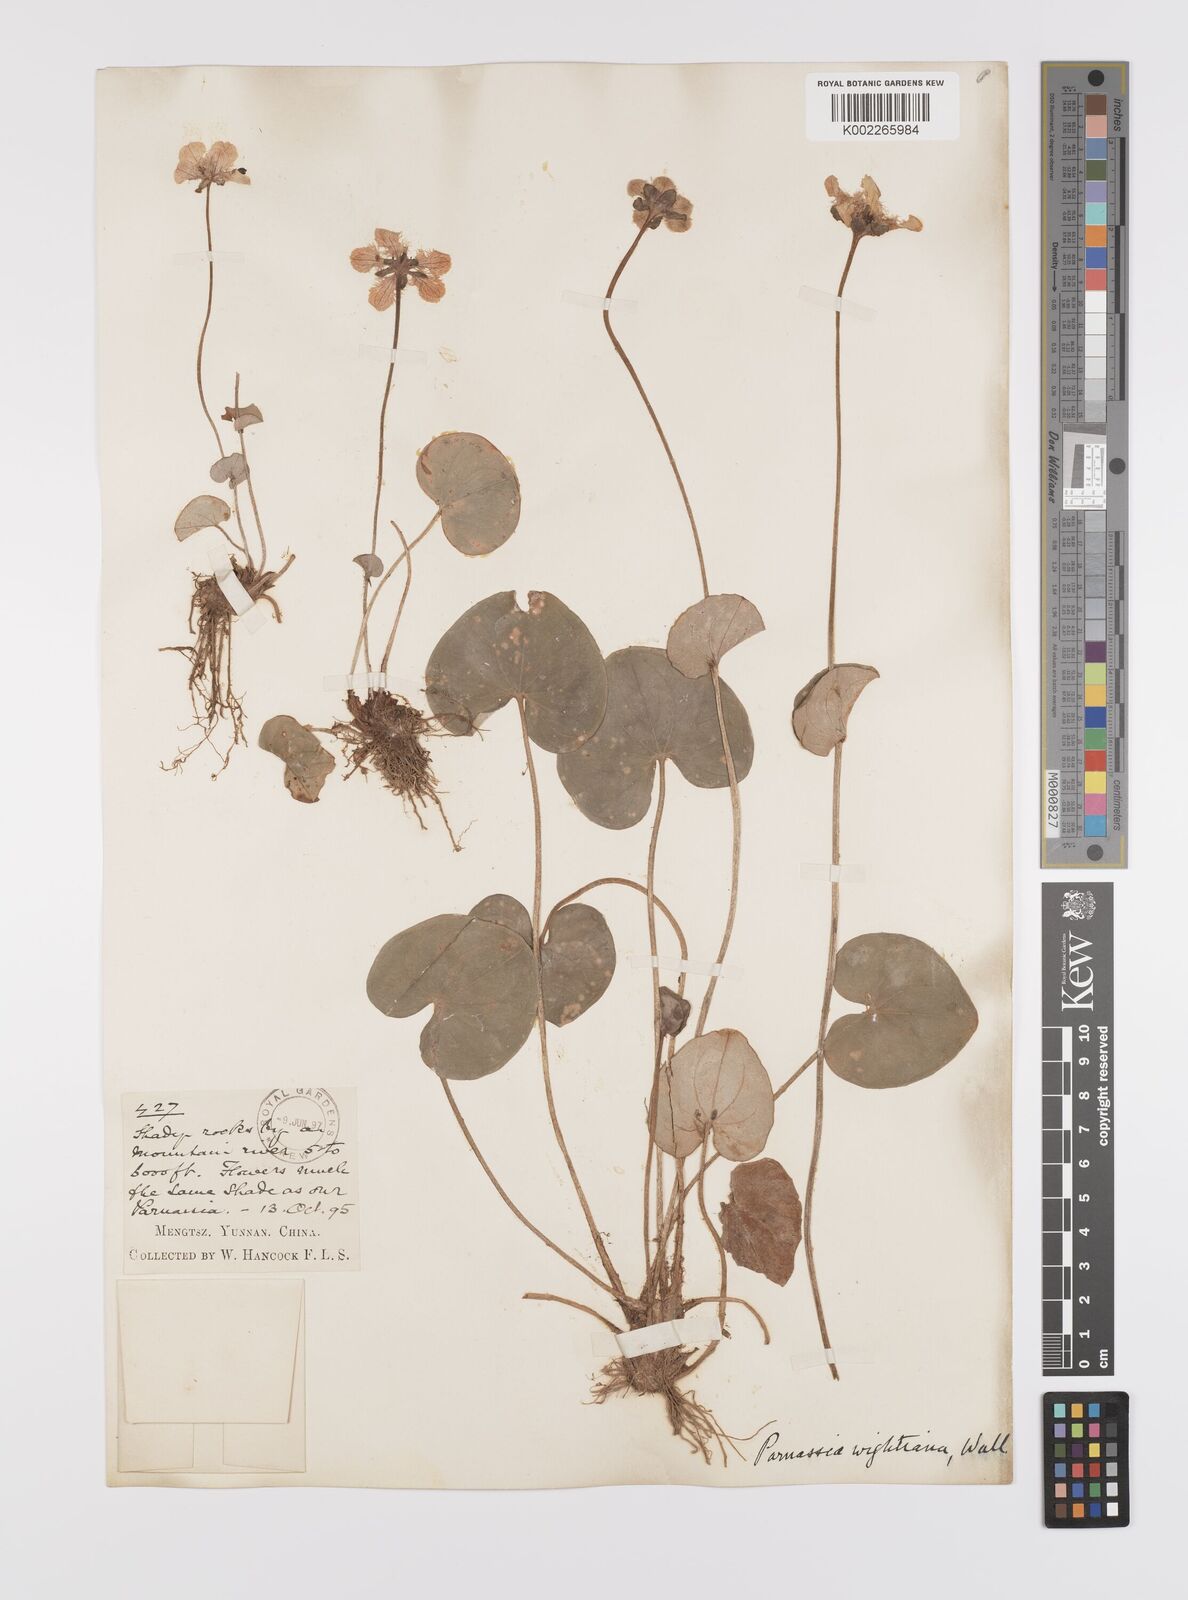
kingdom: Plantae
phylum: Tracheophyta
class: Magnoliopsida
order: Celastrales
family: Parnassiaceae
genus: Parnassia
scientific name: Parnassia wightiana
